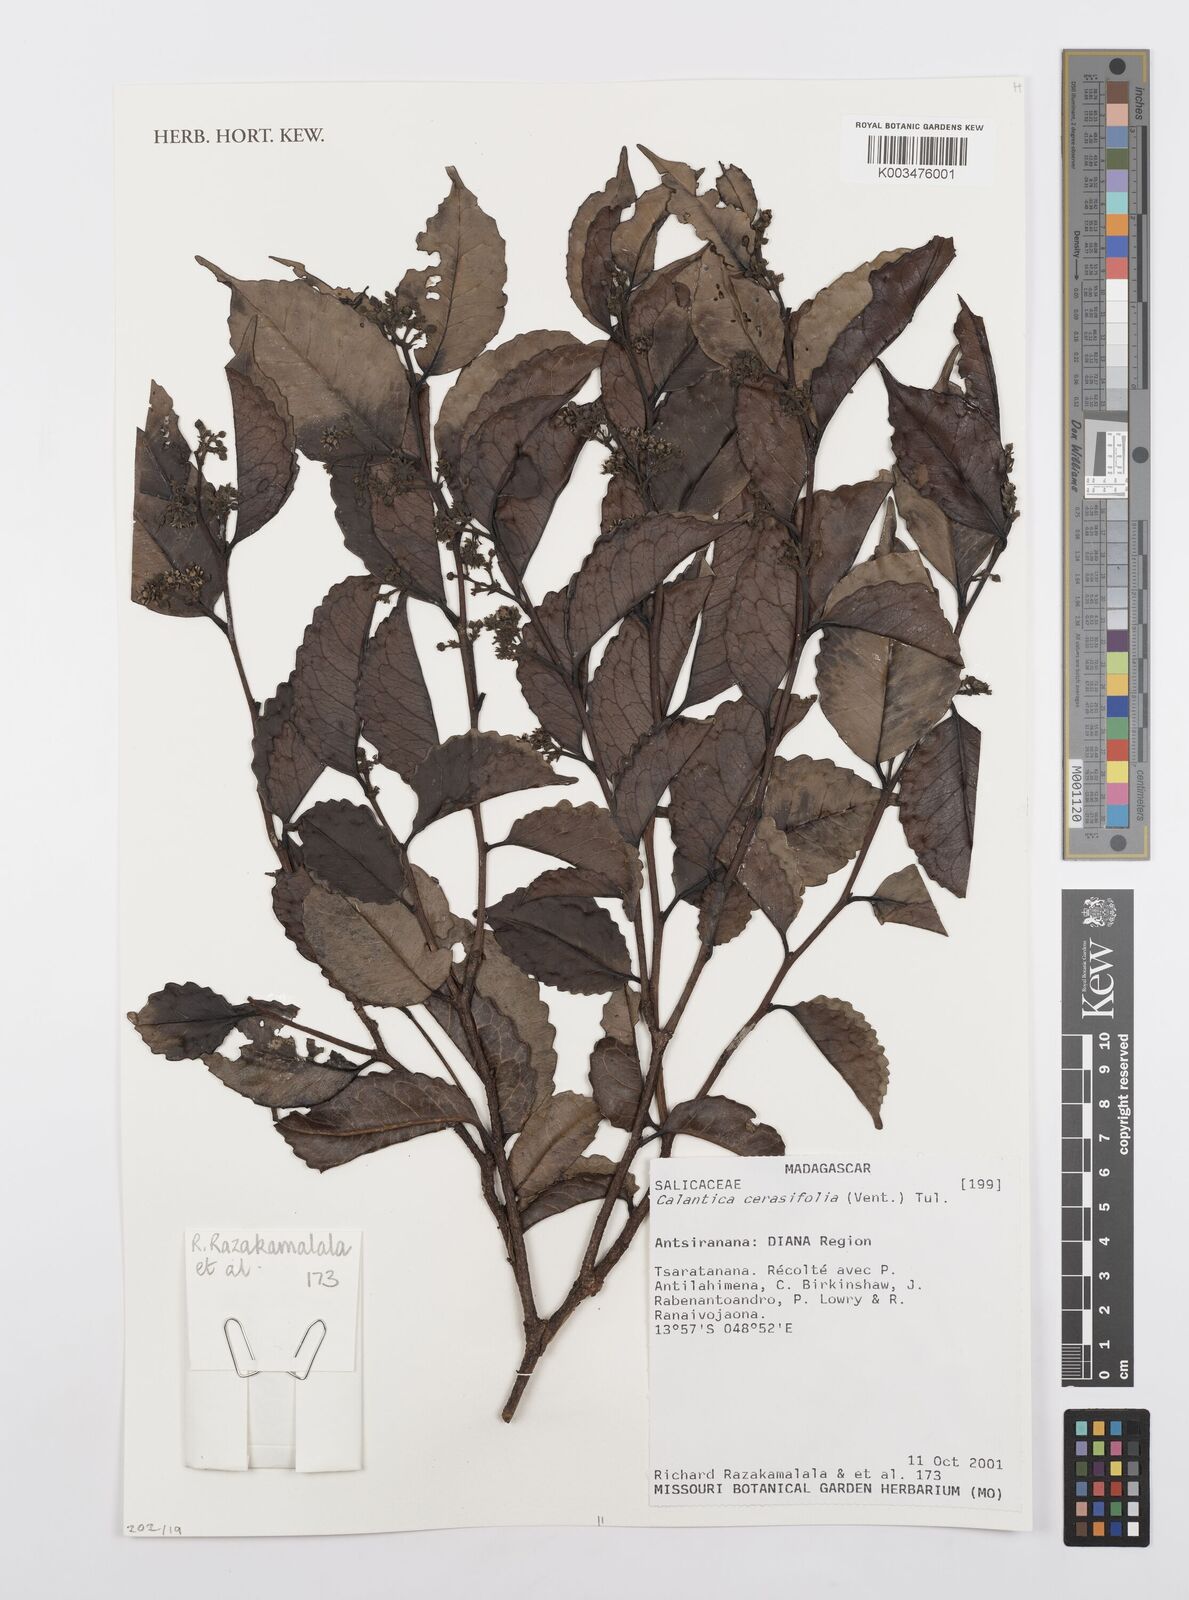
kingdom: Plantae
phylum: Tracheophyta
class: Magnoliopsida
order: Malpighiales
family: Salicaceae
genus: Calantica
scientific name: Calantica cerasifolia
